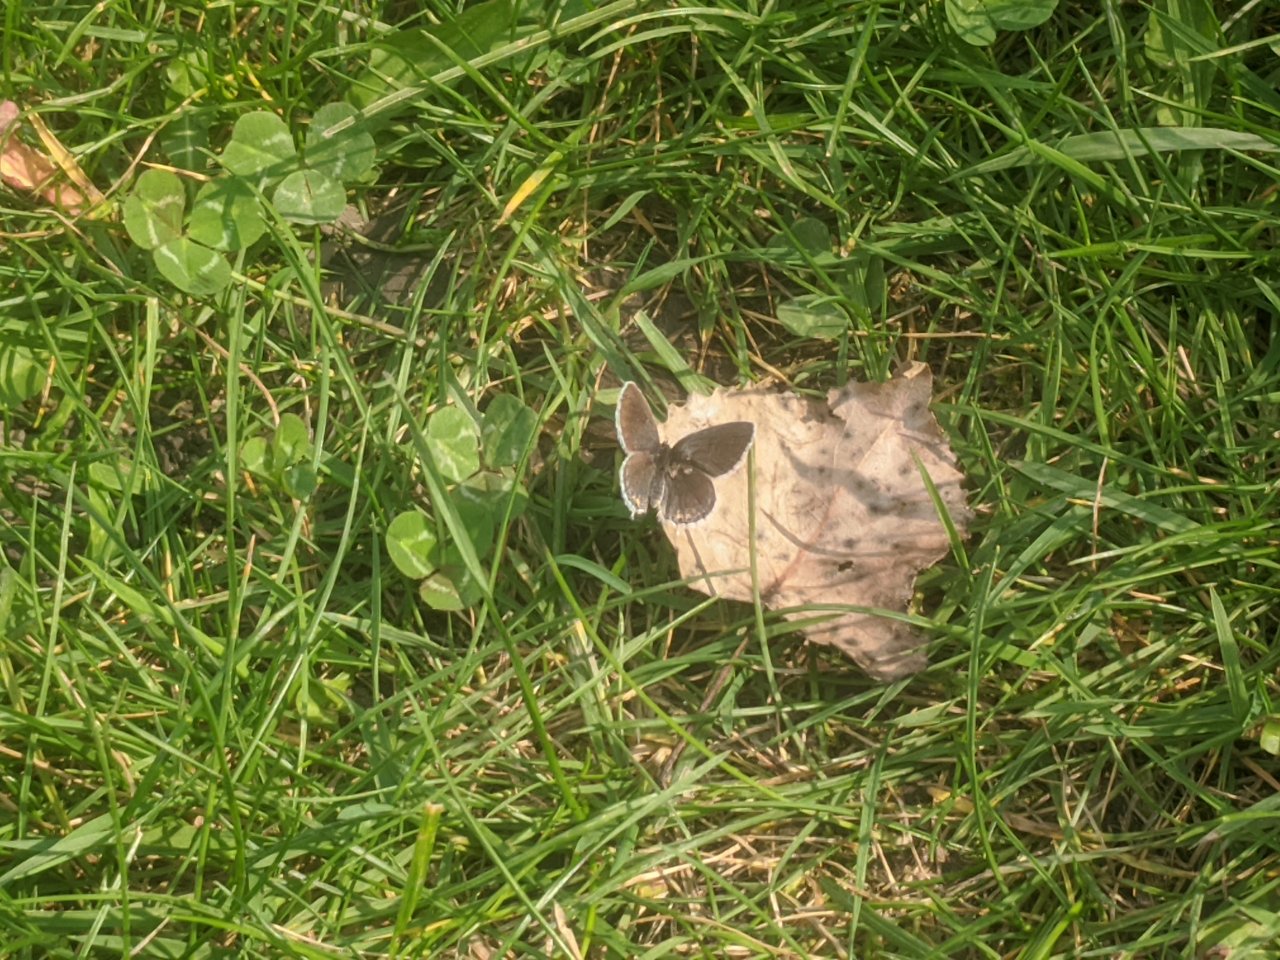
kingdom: Animalia
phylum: Arthropoda
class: Insecta
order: Lepidoptera
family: Lycaenidae
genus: Elkalyce
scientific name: Elkalyce comyntas
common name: Eastern Tailed-Blue
